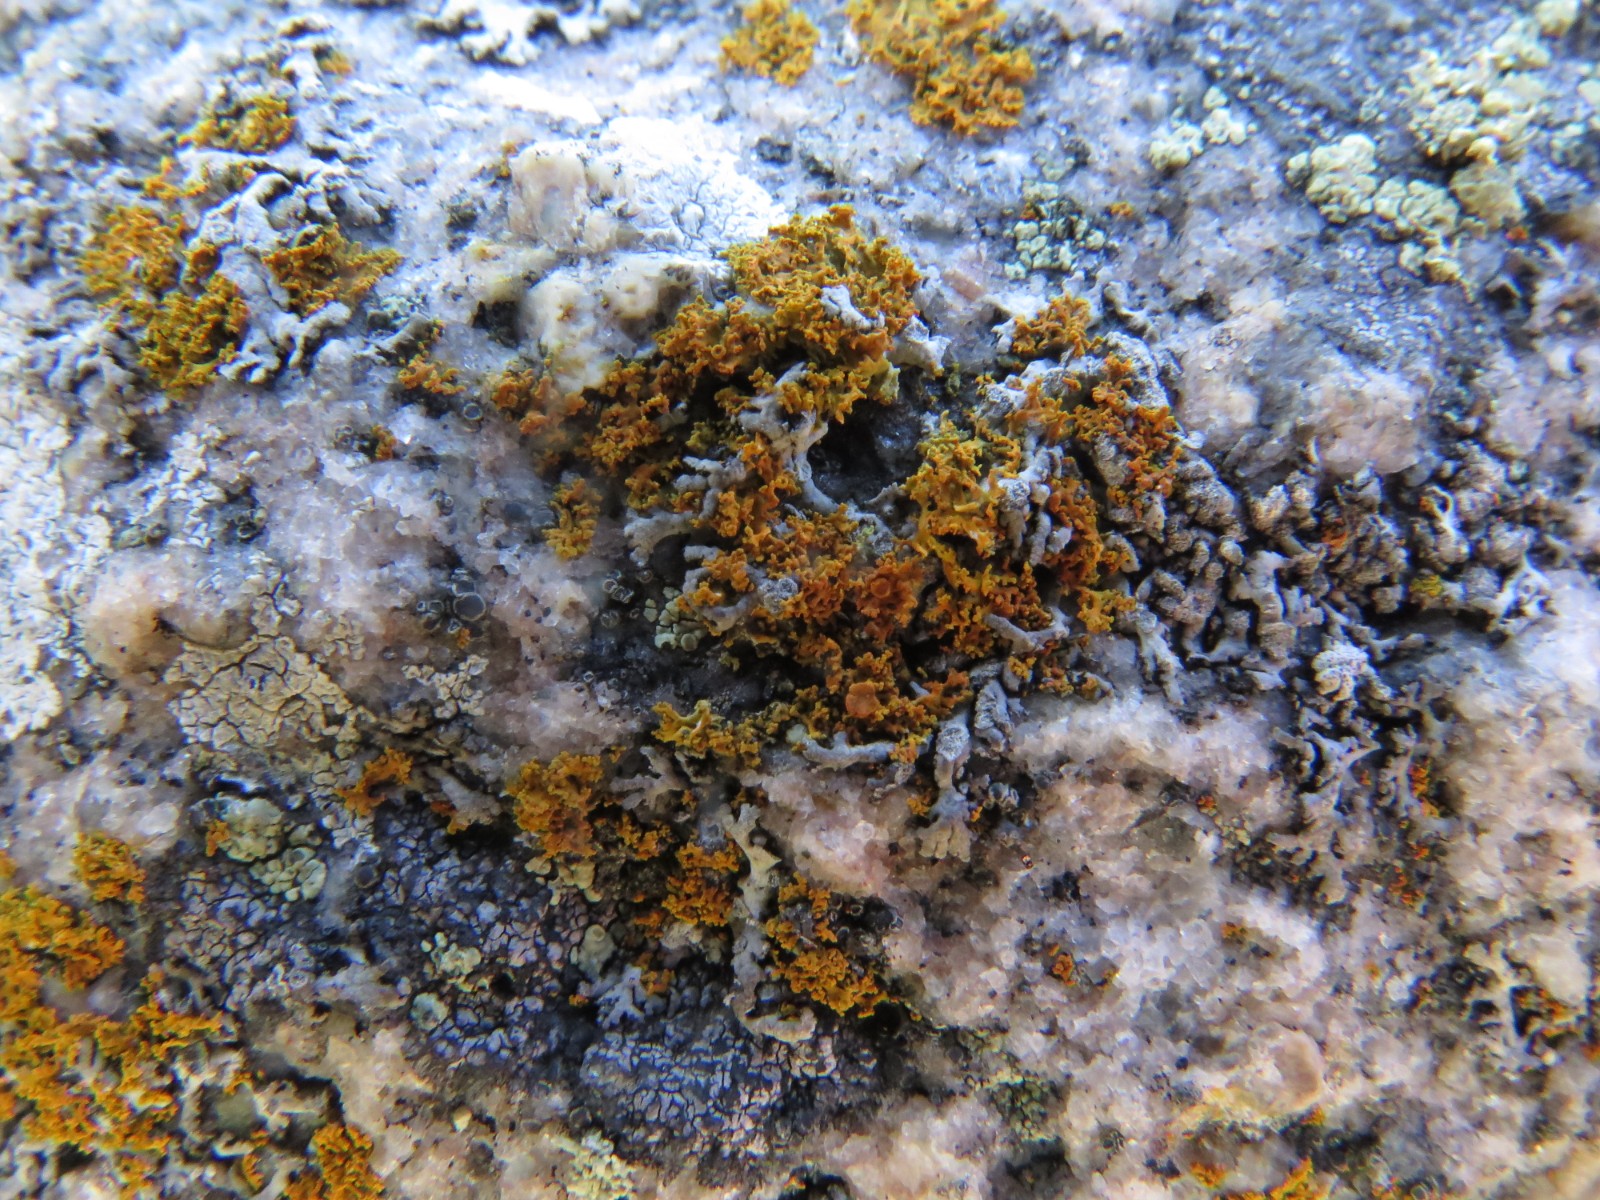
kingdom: Fungi
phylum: Ascomycota
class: Lecanoromycetes
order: Teloschistales
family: Teloschistaceae
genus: Polycauliona
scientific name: Polycauliona candelaria
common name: tue-orangelav
